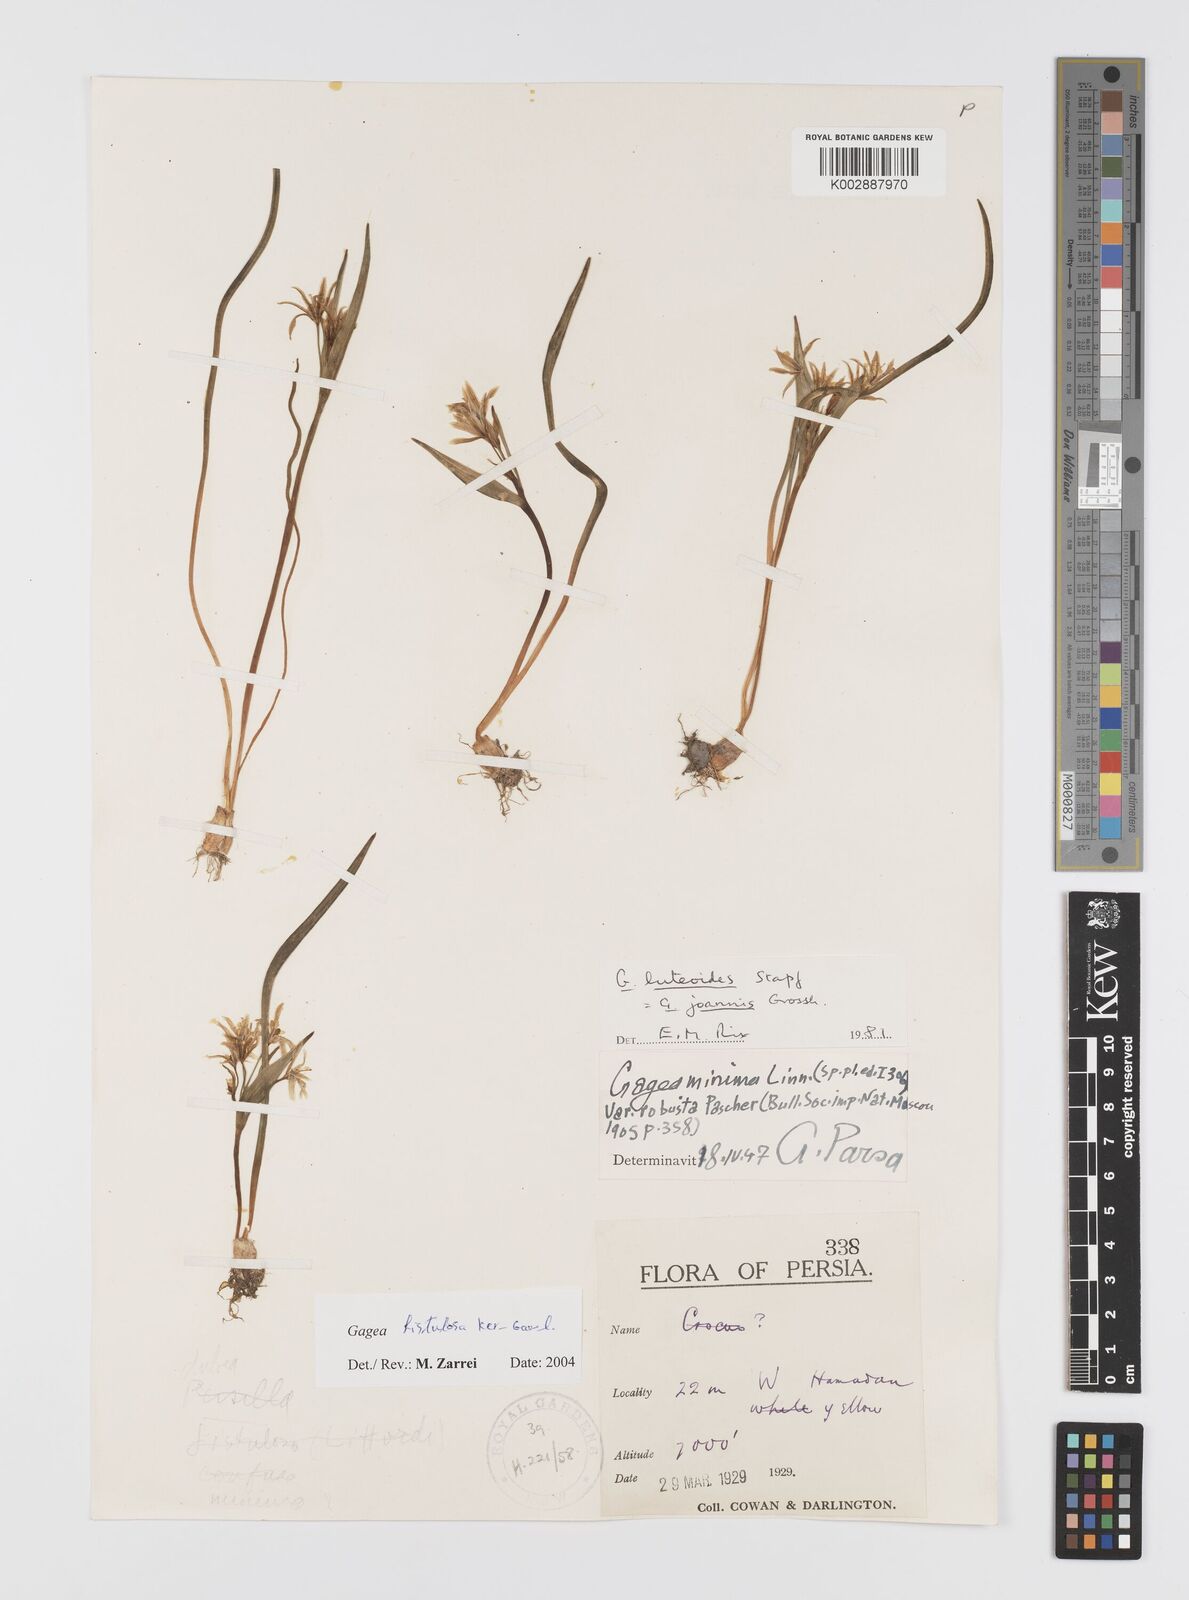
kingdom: Plantae
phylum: Tracheophyta
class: Liliopsida
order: Liliales
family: Liliaceae
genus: Gagea
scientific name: Gagea bohemica
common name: Early star-of-bethlehem
